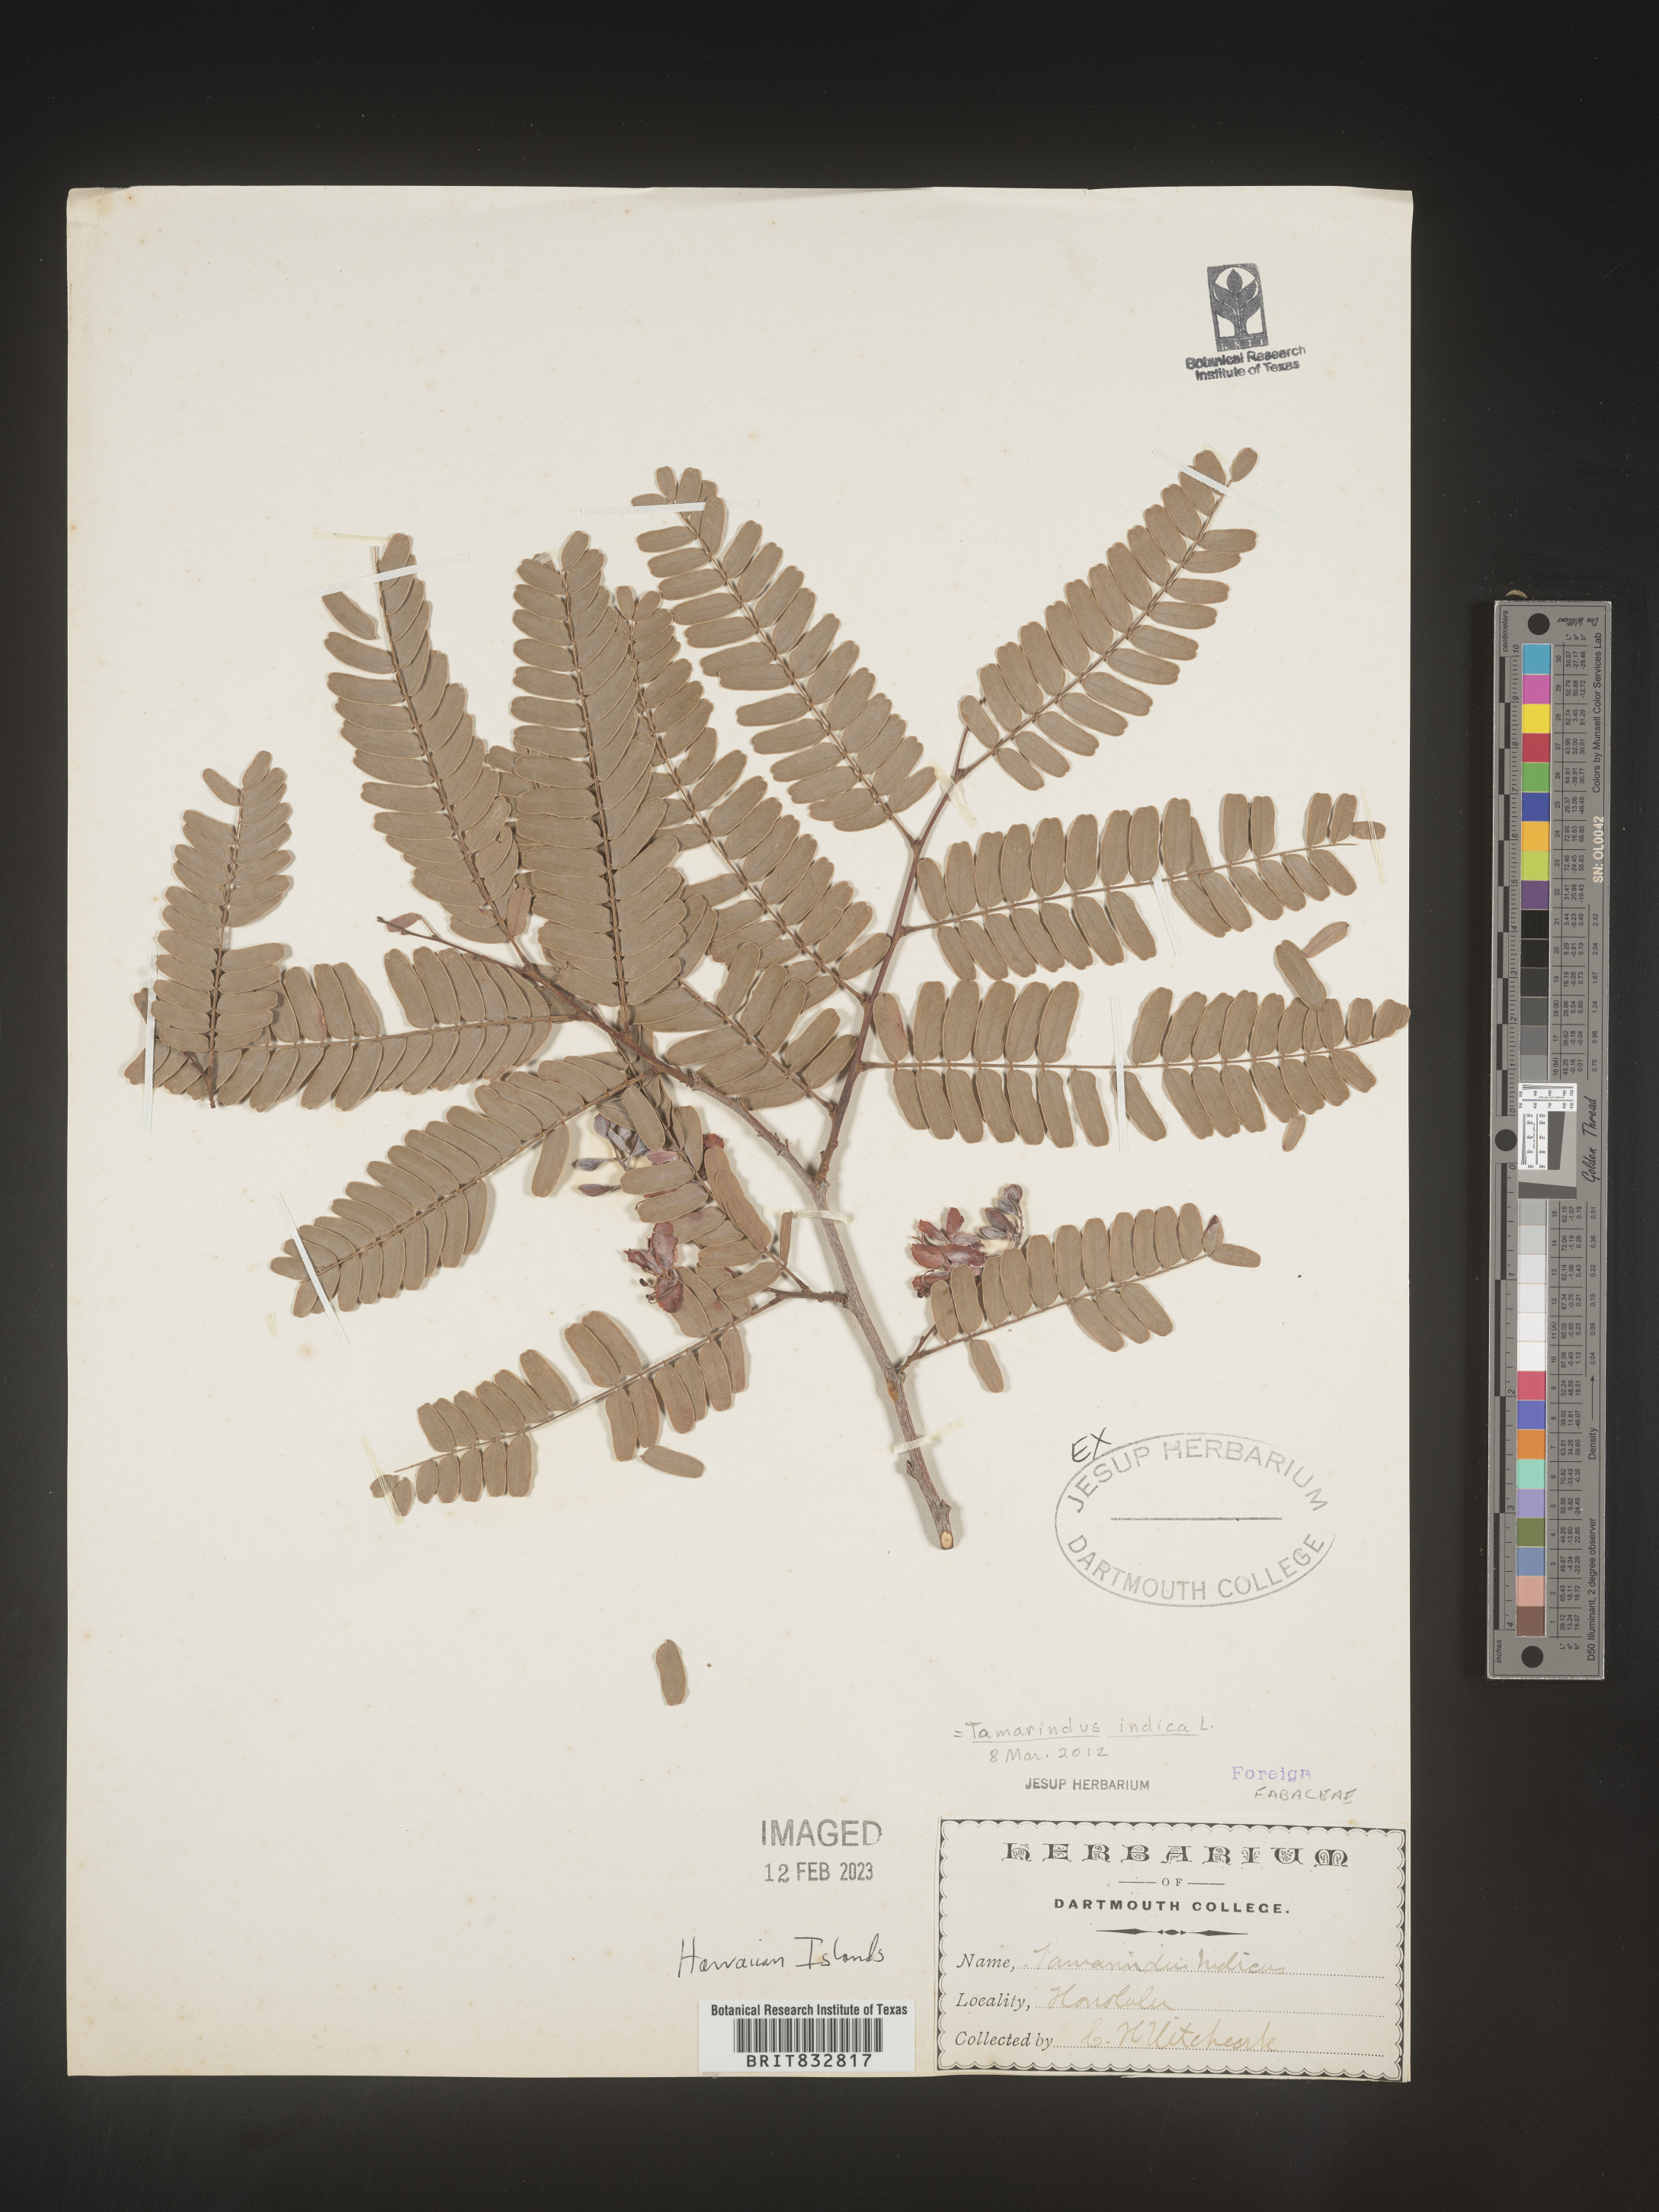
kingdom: Plantae
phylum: Tracheophyta
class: Magnoliopsida
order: Fabales
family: Fabaceae
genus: Tamarindus
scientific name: Tamarindus
